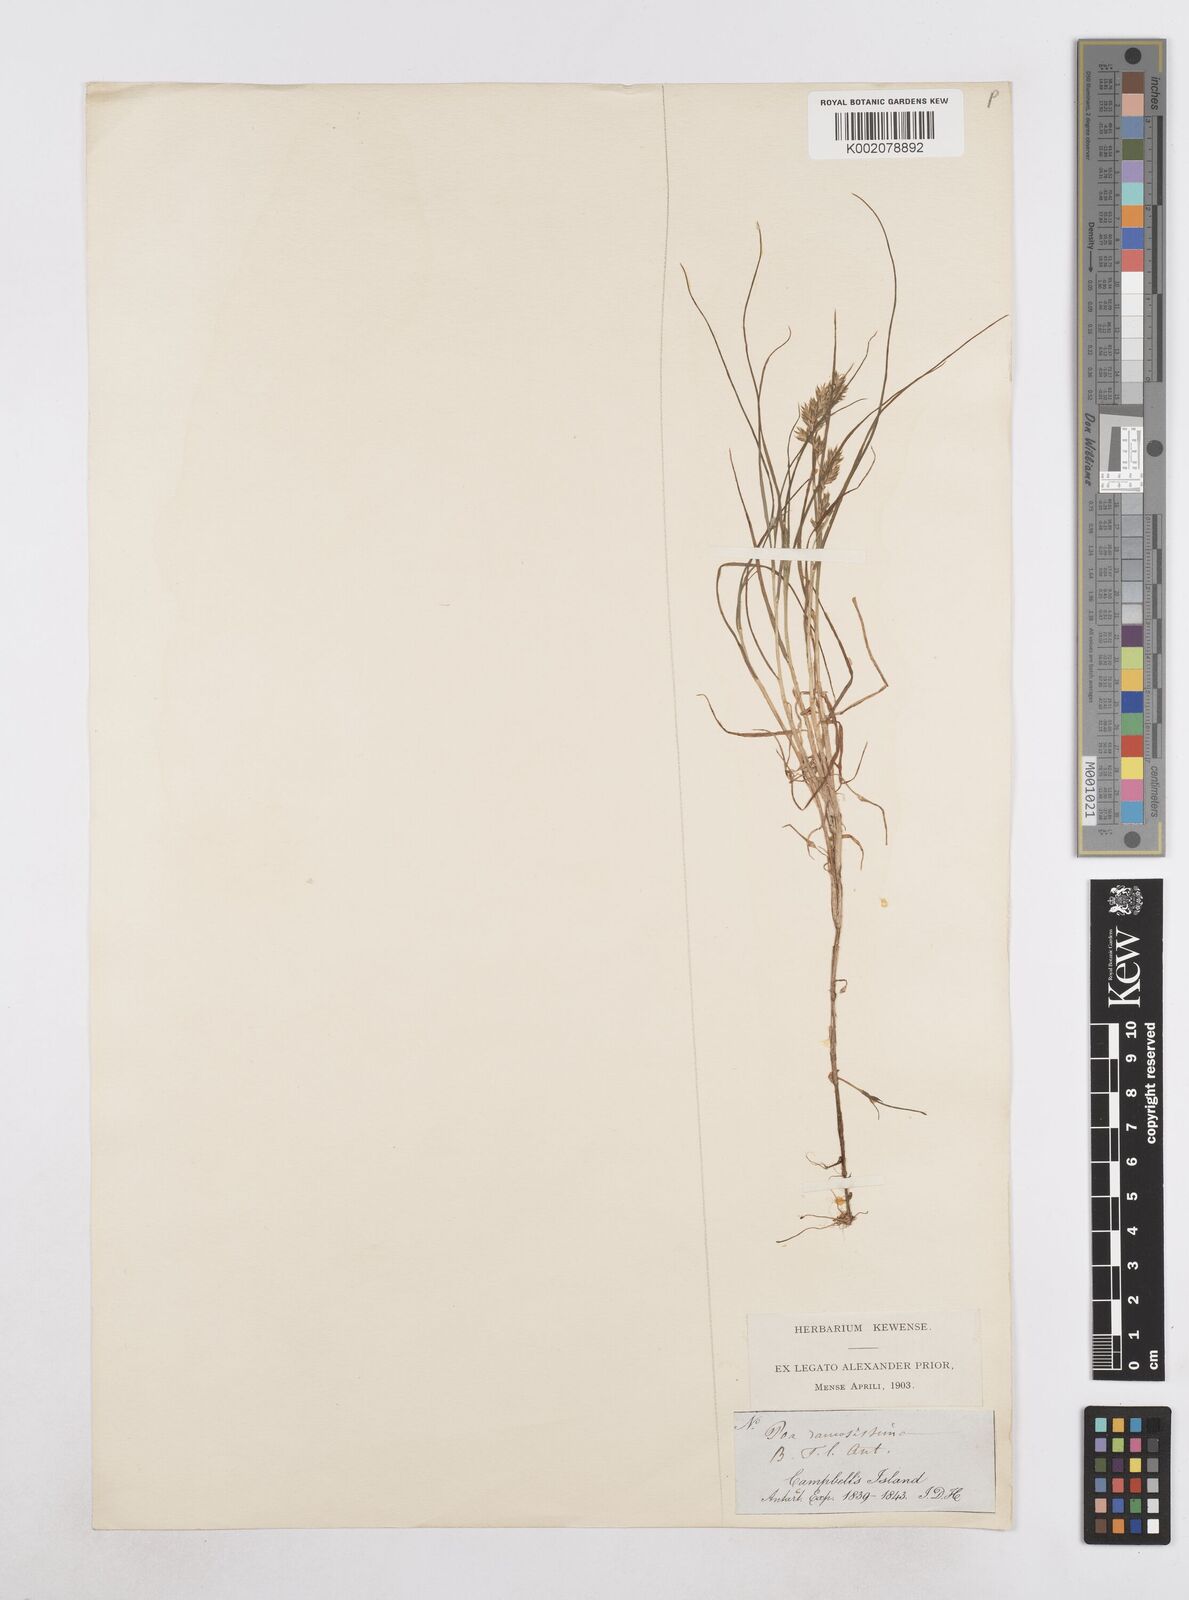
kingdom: Plantae
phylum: Tracheophyta
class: Liliopsida
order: Poales
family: Poaceae
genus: Poa
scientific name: Poa ramosissima
